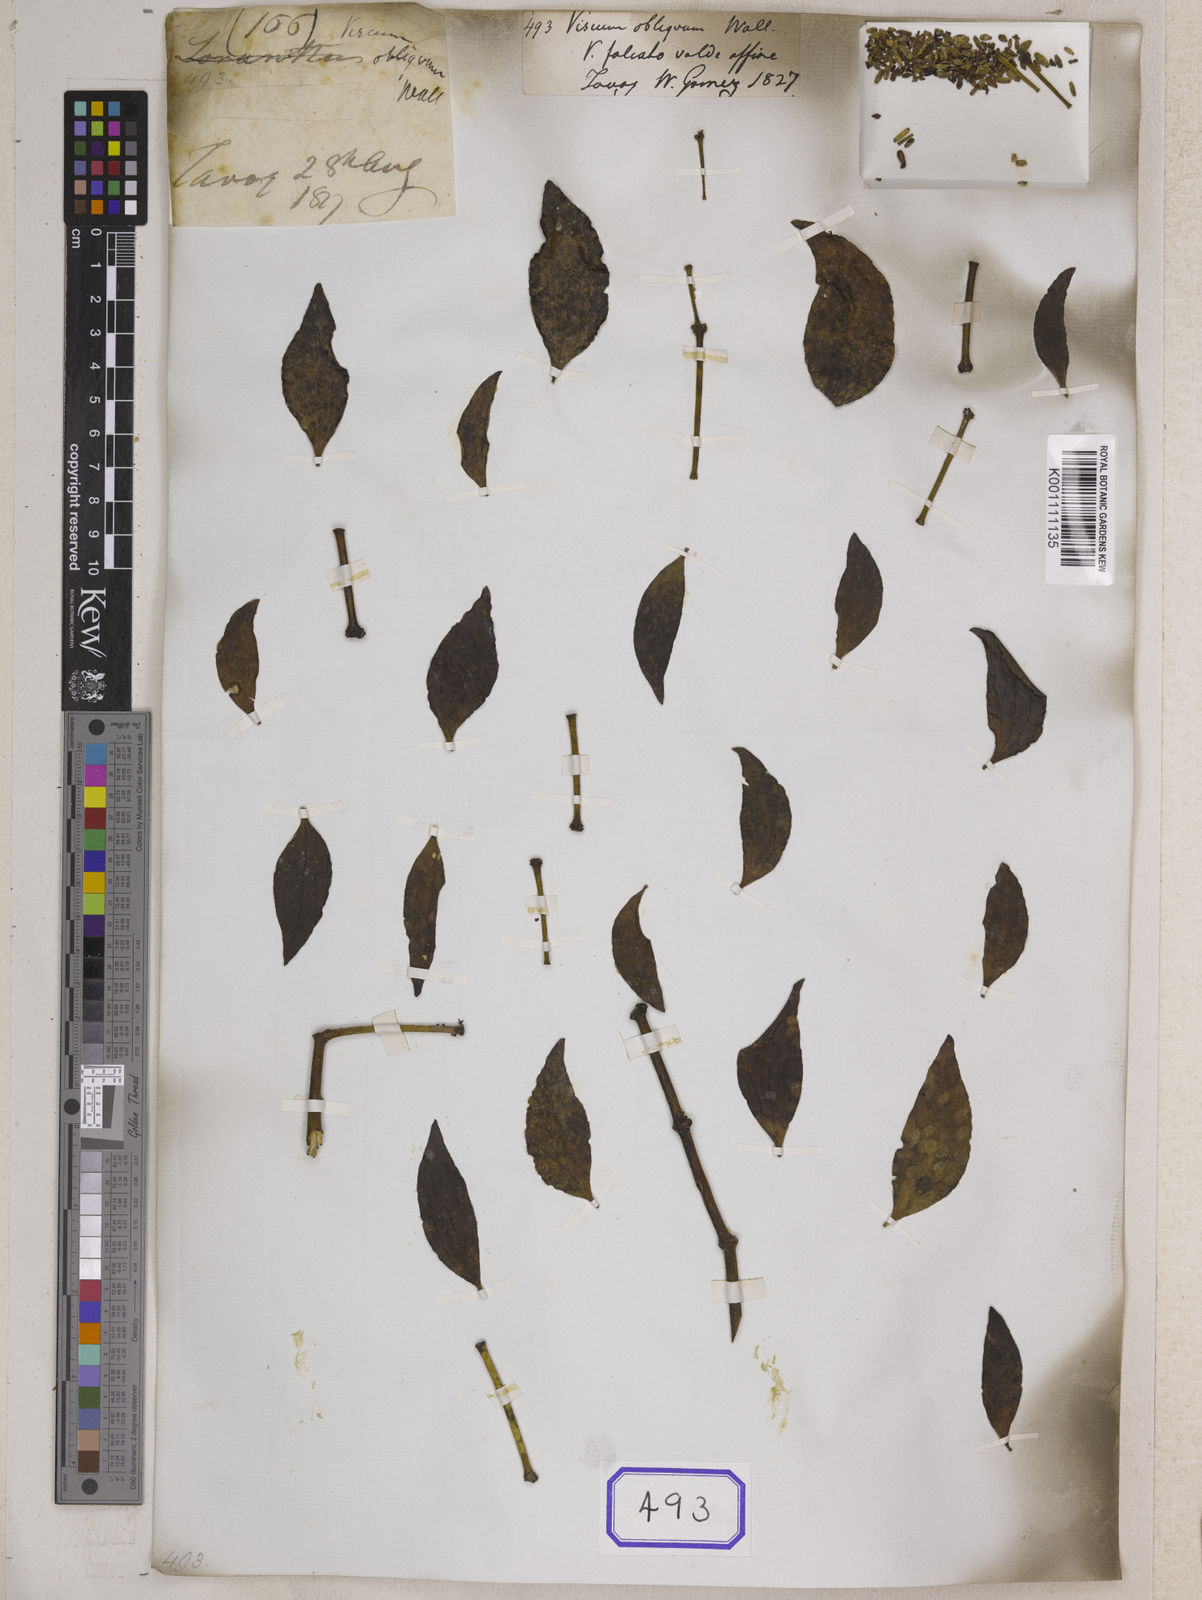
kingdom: Plantae
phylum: Tracheophyta
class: Magnoliopsida
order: Santalales
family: Viscaceae
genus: Viscum
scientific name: Viscum
